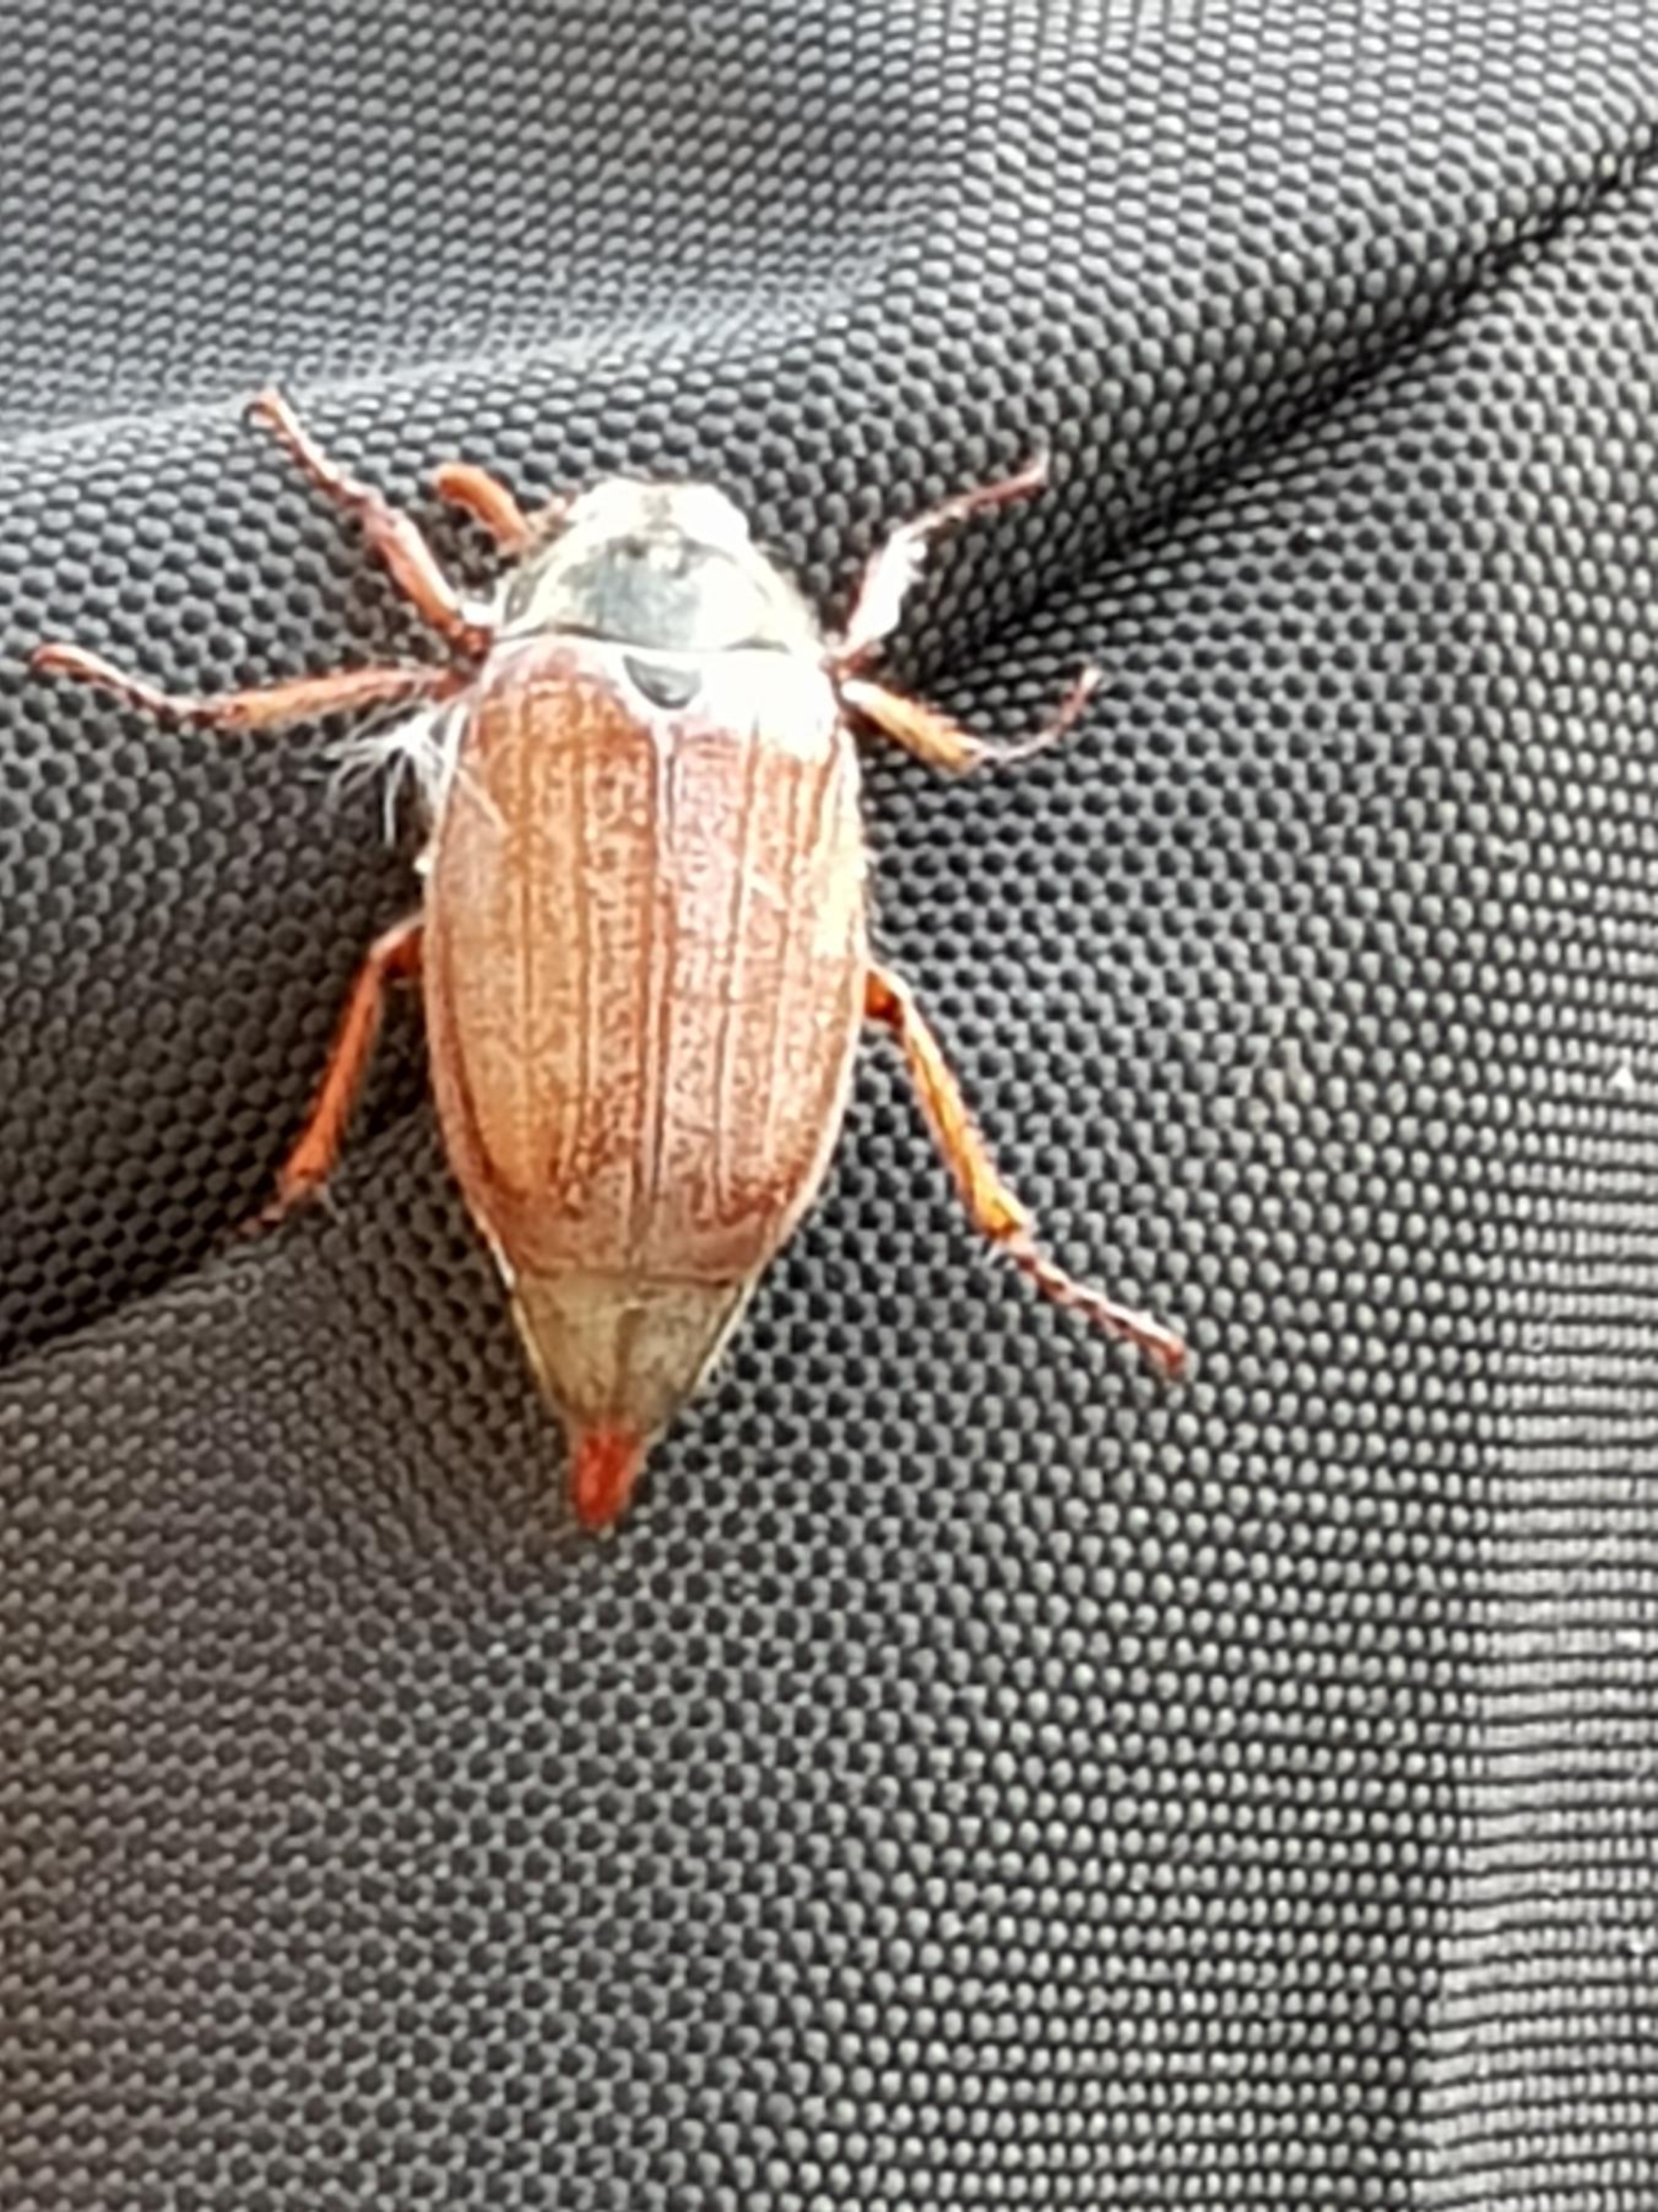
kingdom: Animalia
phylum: Arthropoda
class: Insecta
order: Coleoptera
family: Scarabaeidae
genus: Melolontha
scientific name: Melolontha melolontha
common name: Almindelig oldenborre
